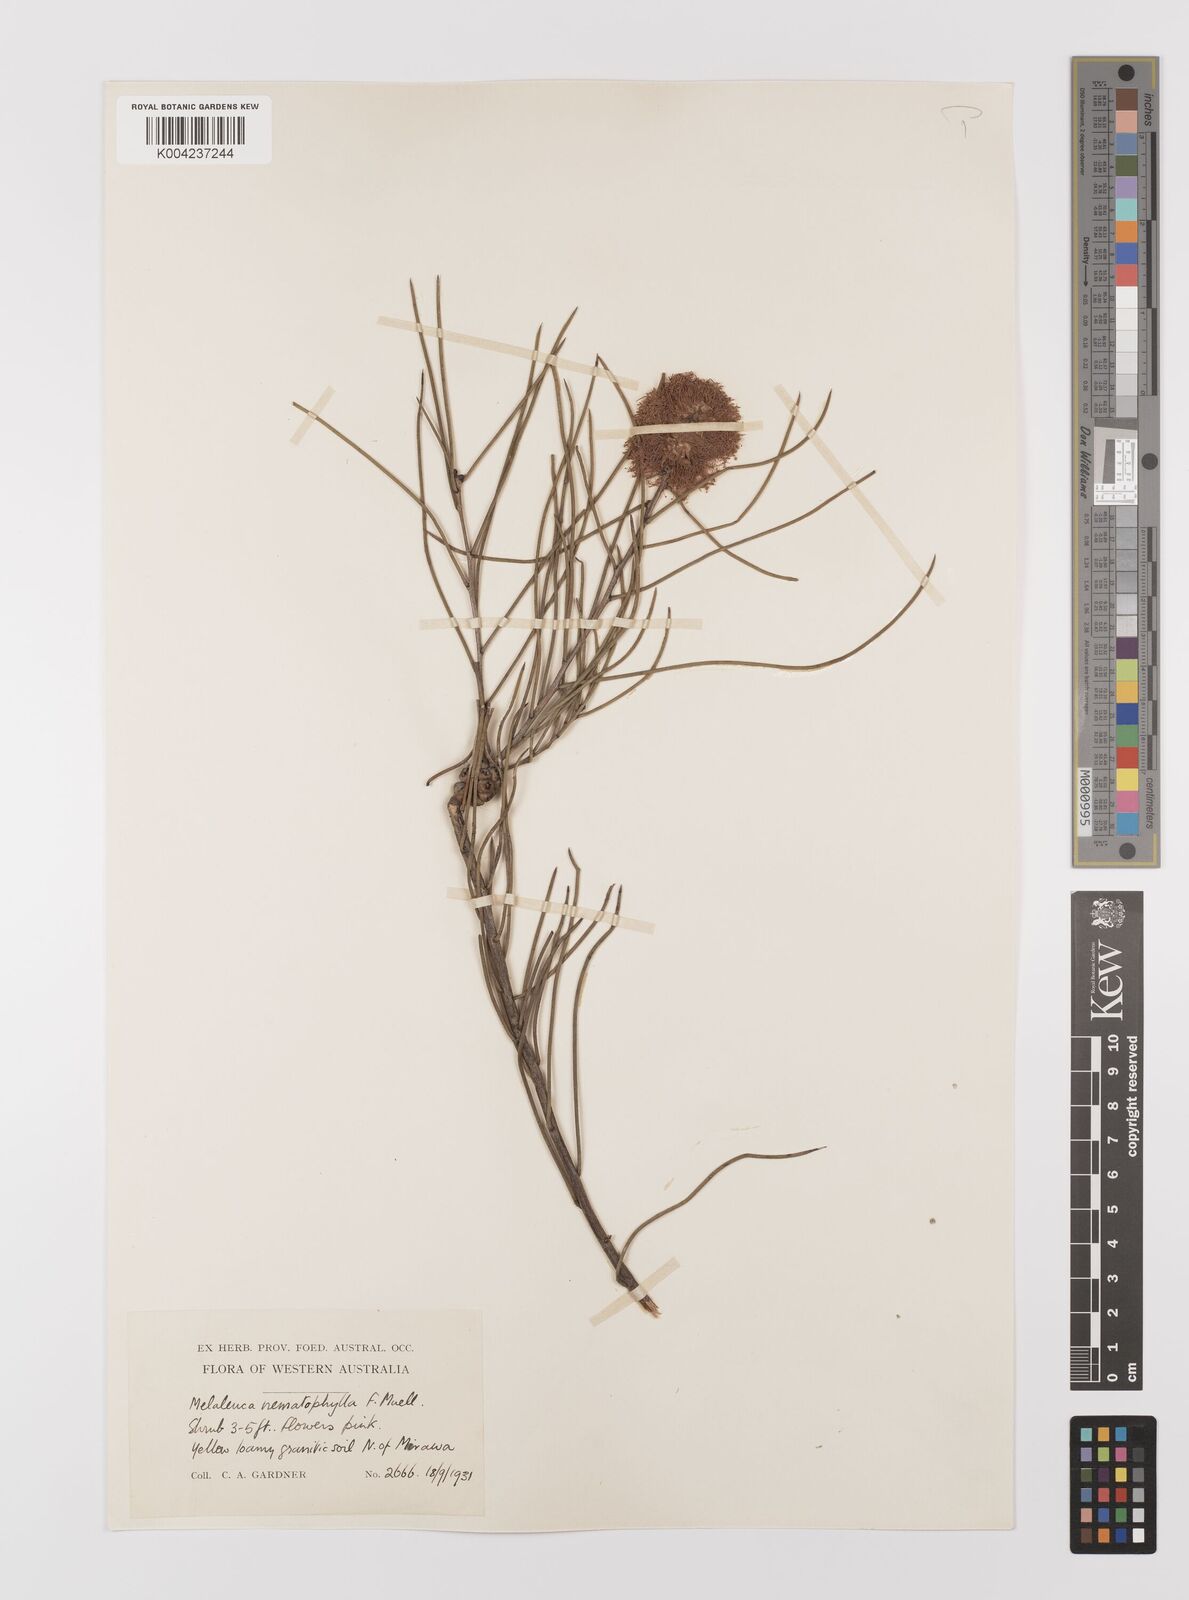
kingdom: Plantae
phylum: Tracheophyta
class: Magnoliopsida
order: Myrtales
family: Myrtaceae
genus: Melaleuca
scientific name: Melaleuca filifolia
